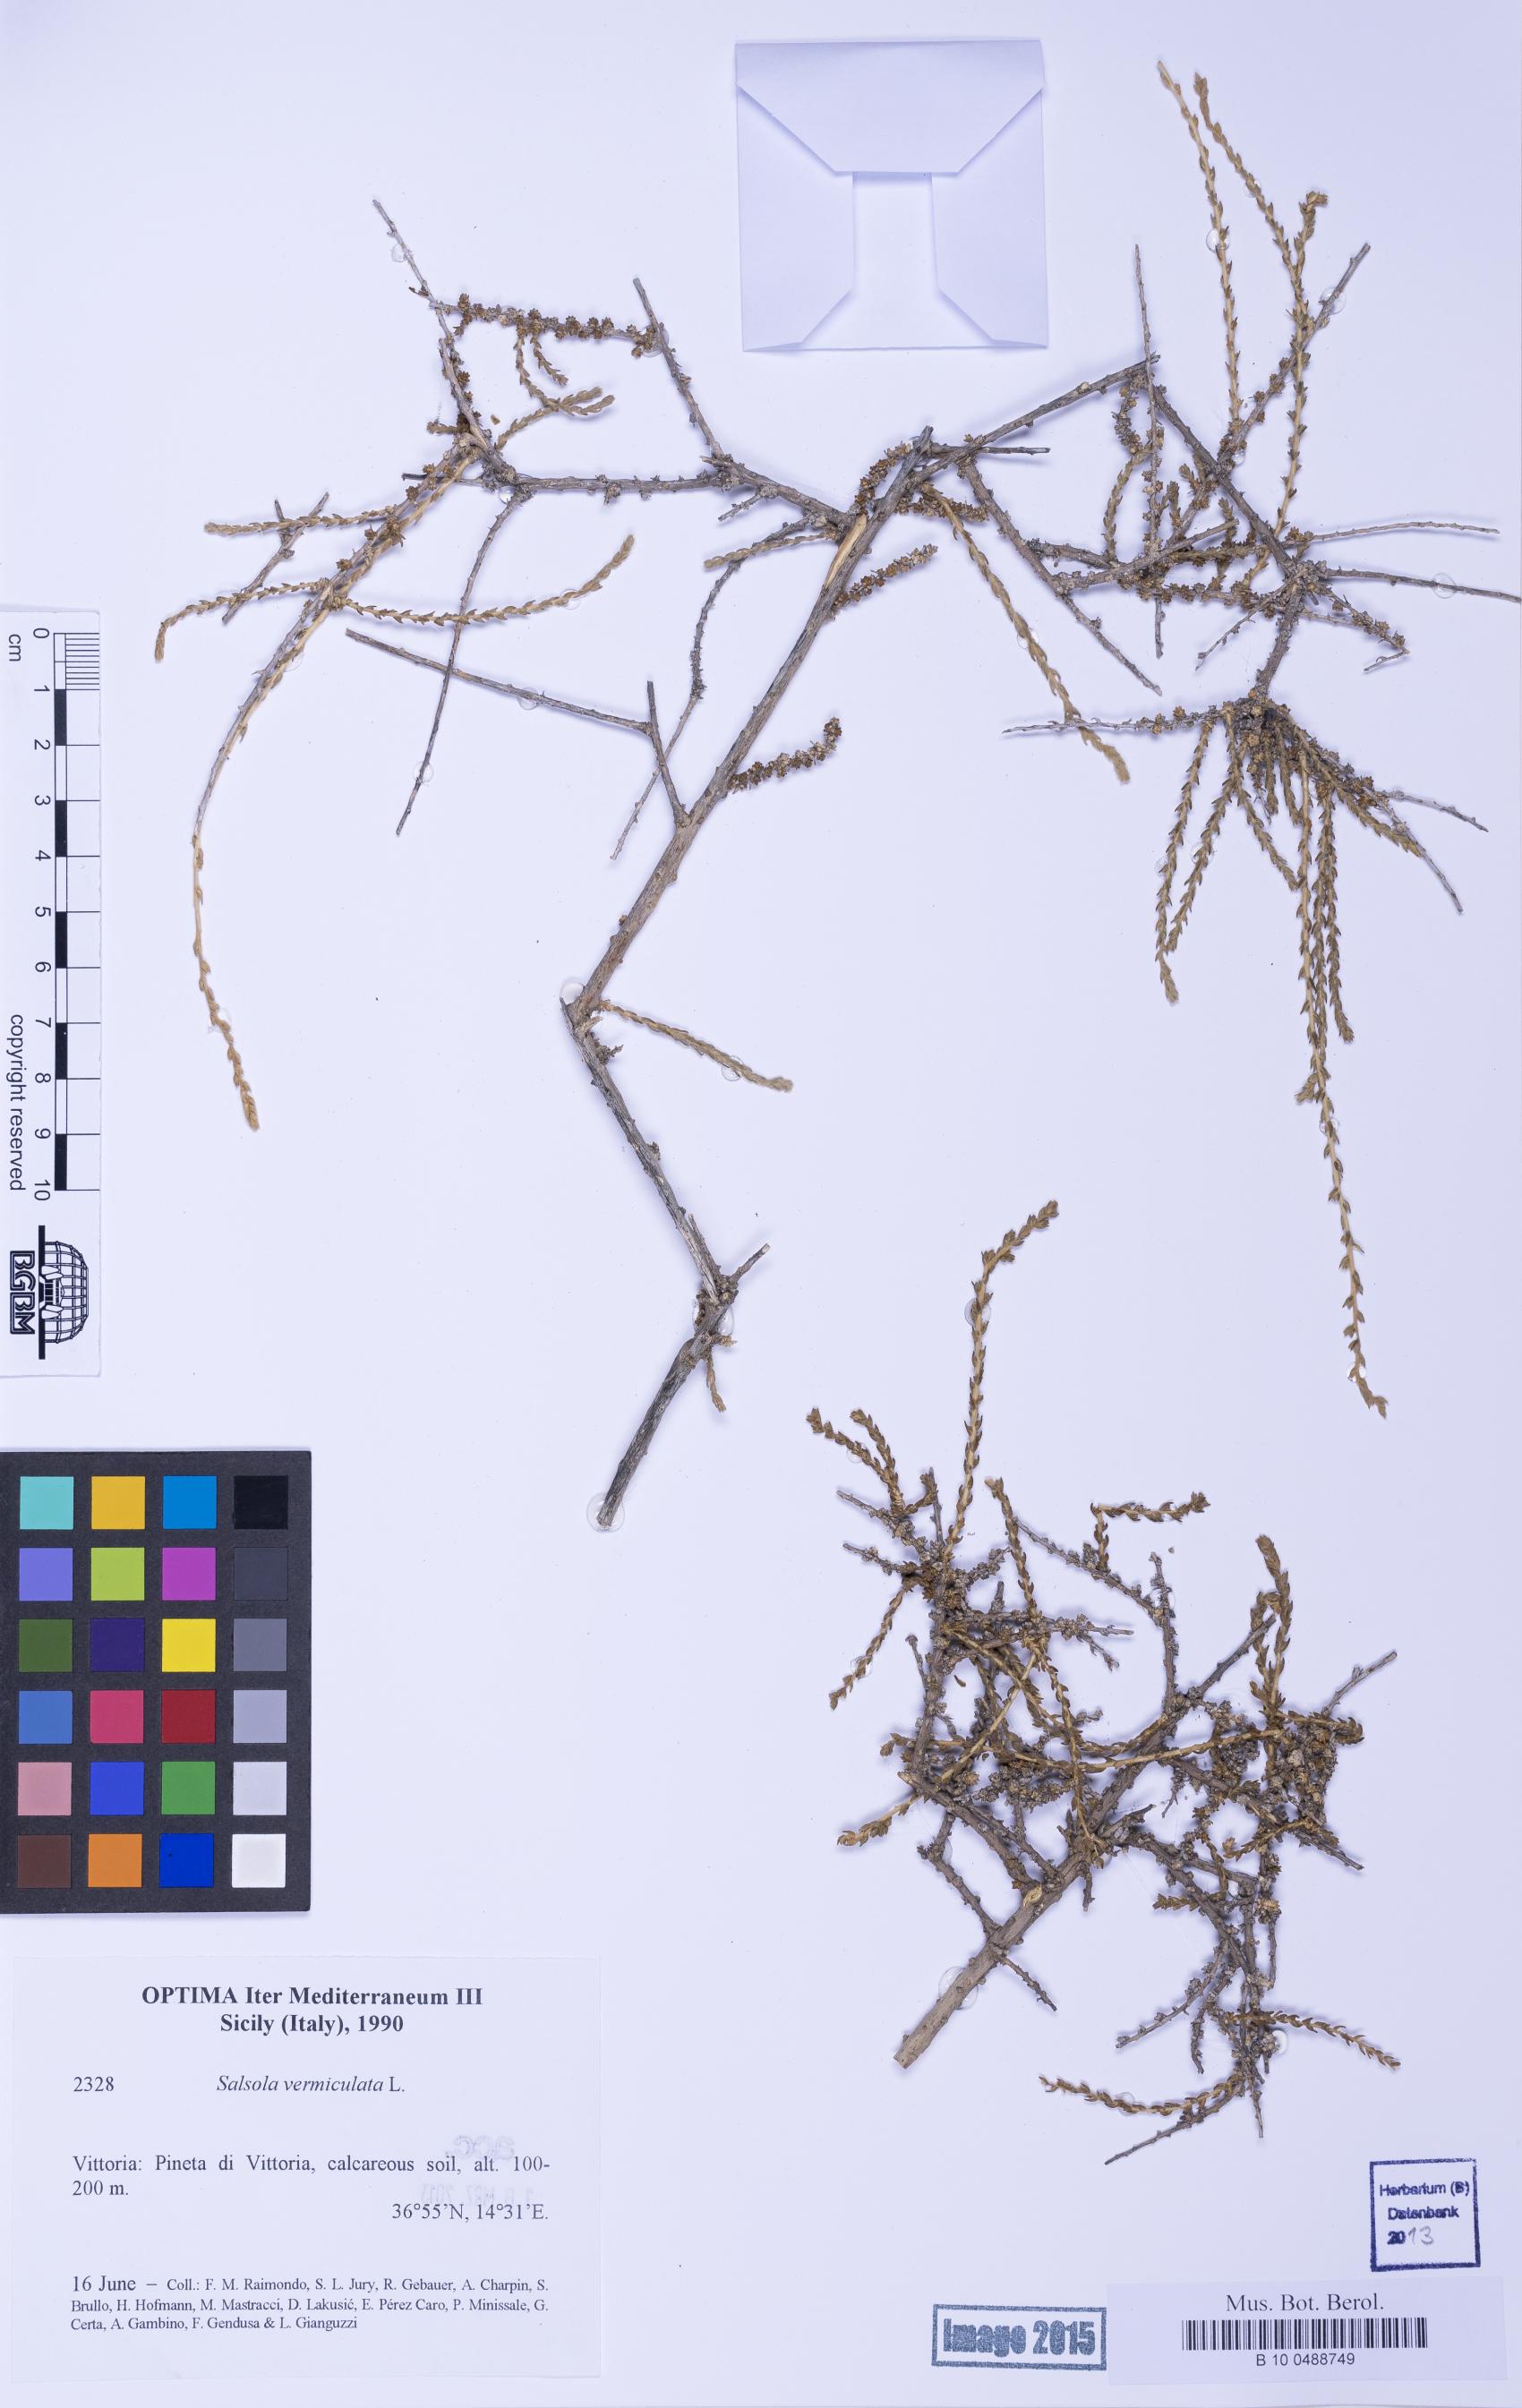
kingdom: Plantae
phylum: Tracheophyta
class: Magnoliopsida
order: Caryophyllales
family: Amaranthaceae
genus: Nitrosalsola
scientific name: Nitrosalsola vermiculata
